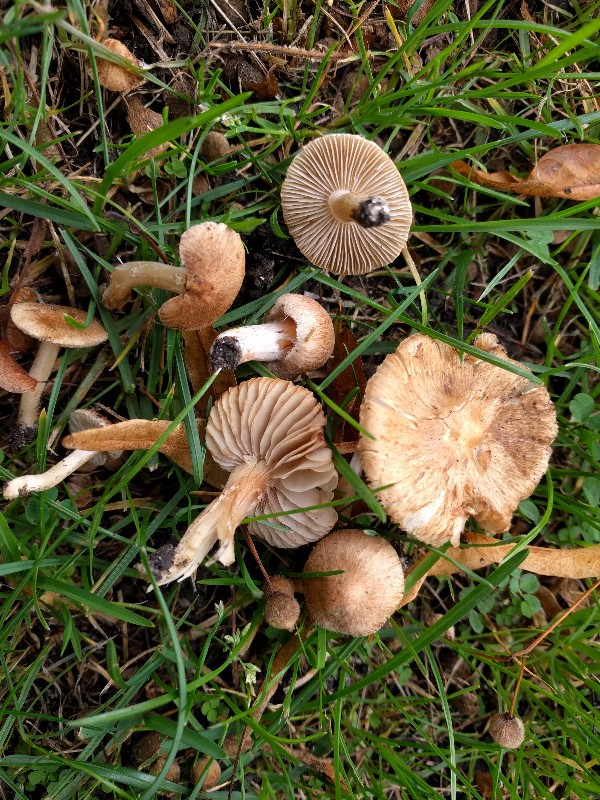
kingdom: Fungi
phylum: Basidiomycota
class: Agaricomycetes
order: Agaricales
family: Inocybaceae
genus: Inocybe
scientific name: Inocybe
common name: trævlhat
